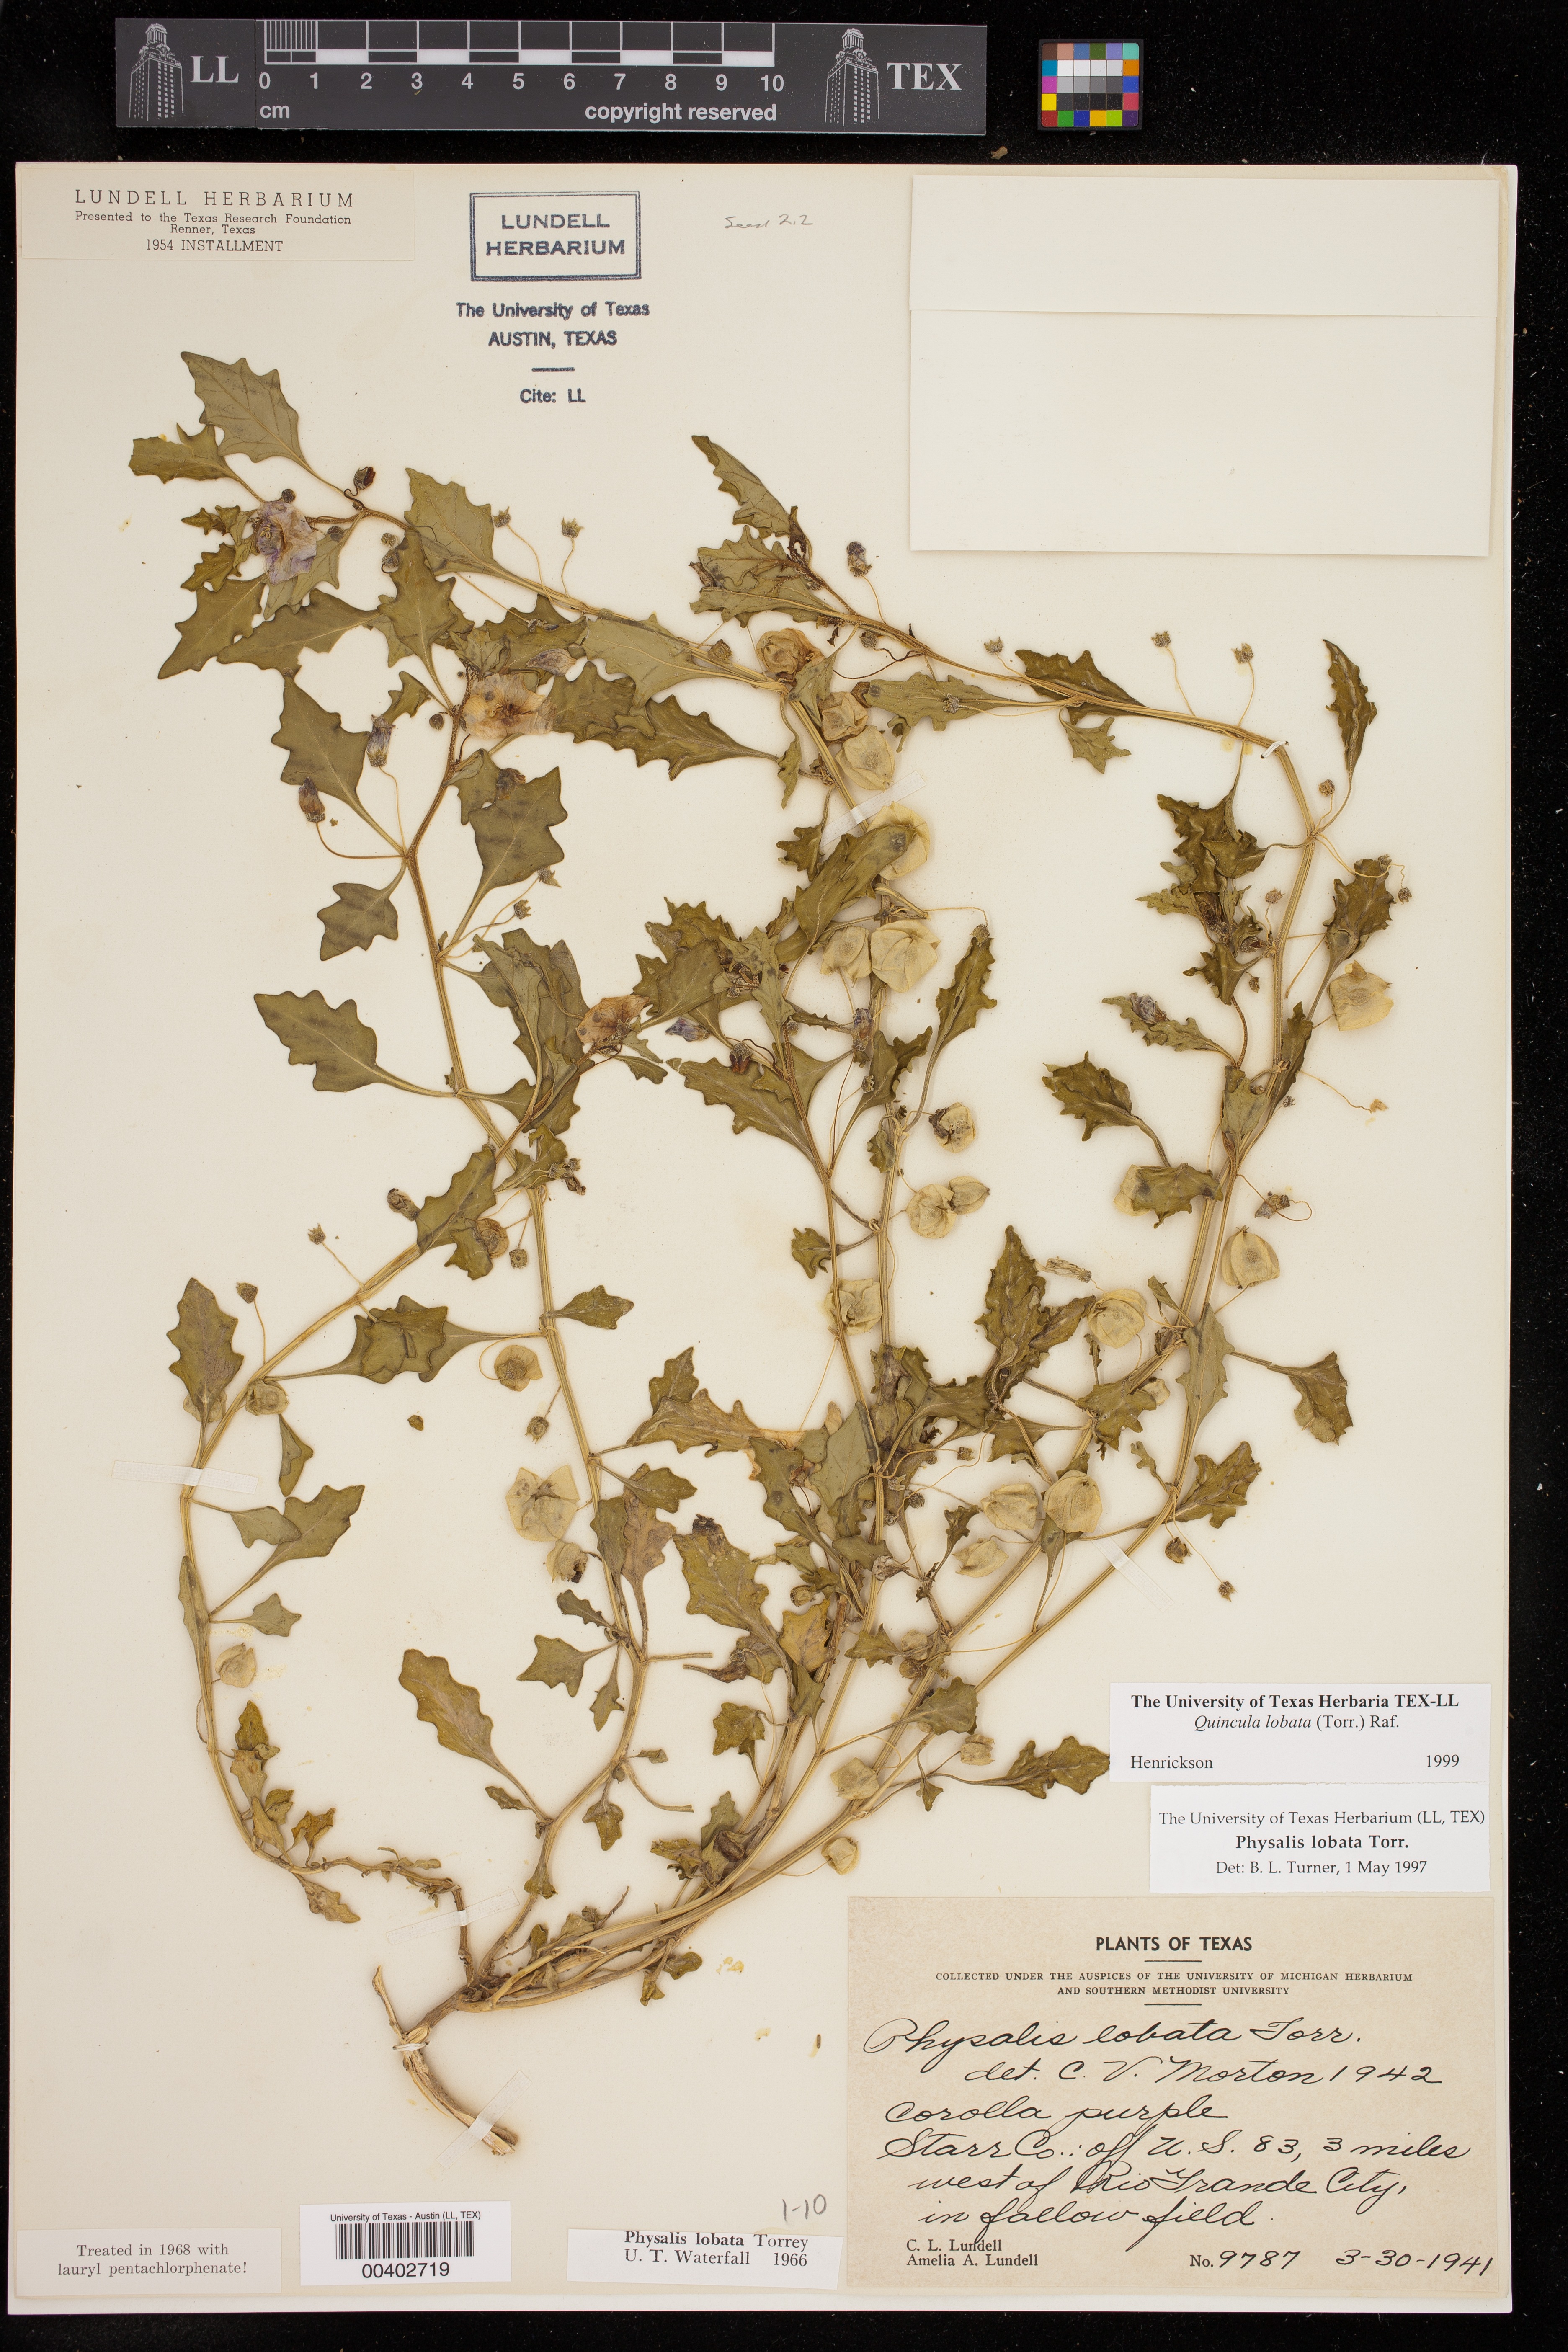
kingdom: Plantae
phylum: Tracheophyta
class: Magnoliopsida
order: Solanales
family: Solanaceae
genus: Quincula
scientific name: Quincula lobata
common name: Purple-ground-cherry
